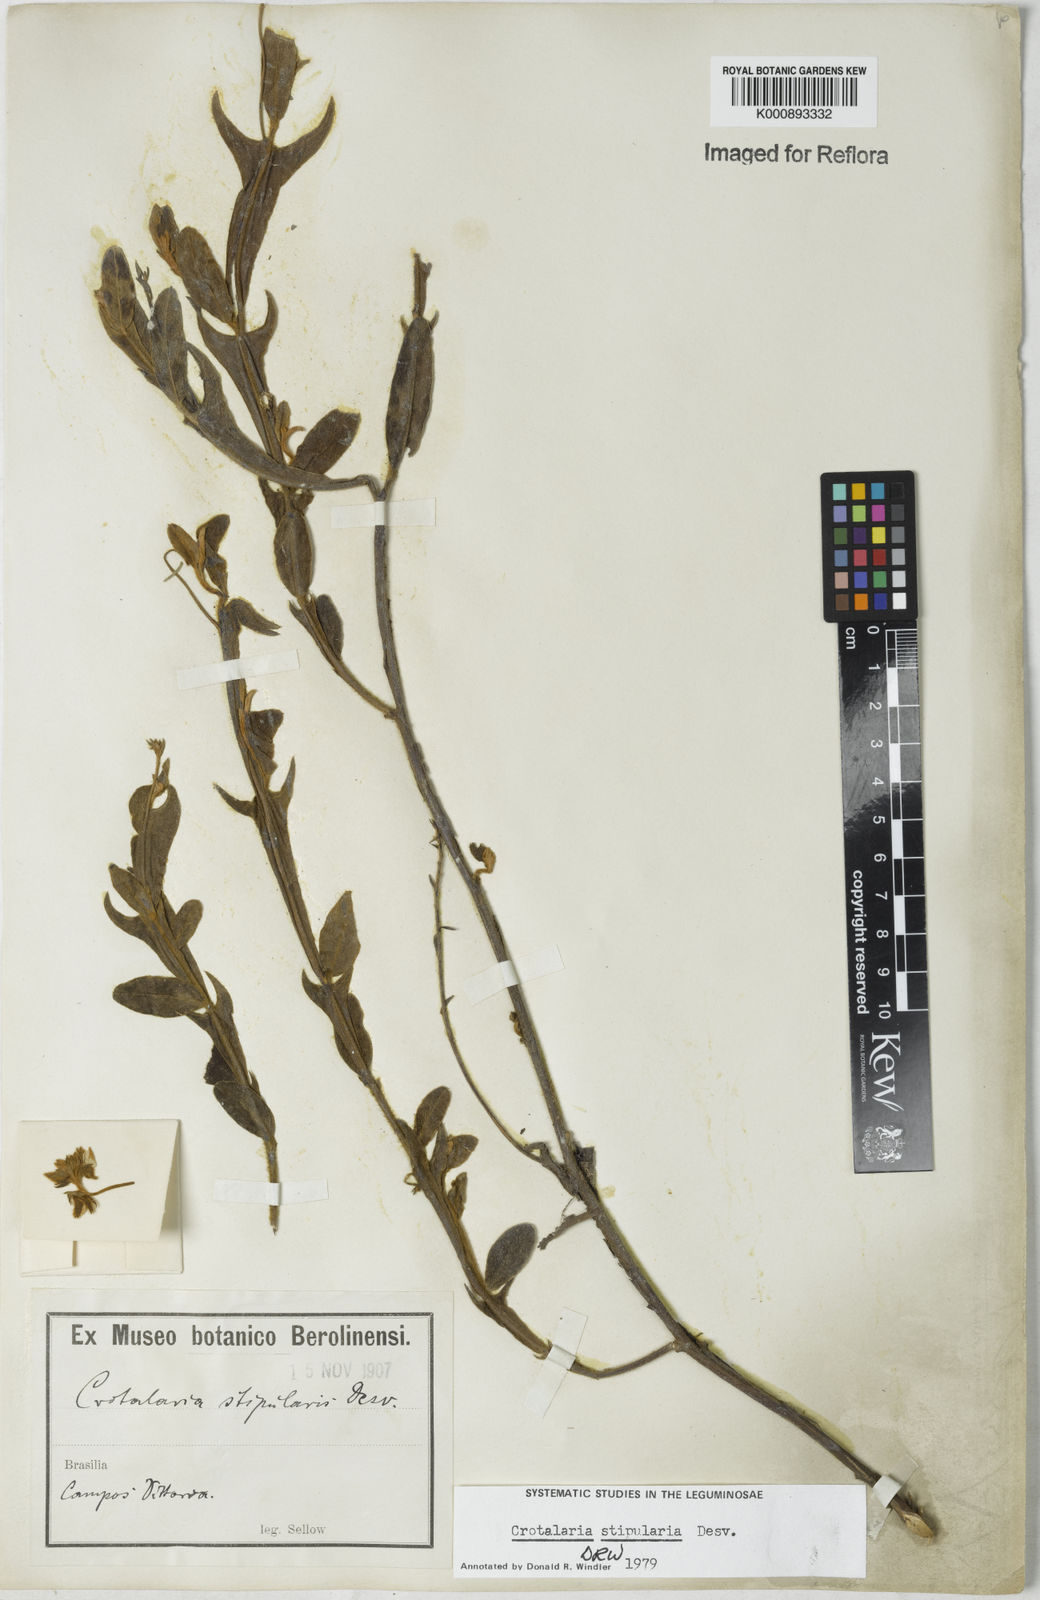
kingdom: Plantae
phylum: Tracheophyta
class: Magnoliopsida
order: Fabales
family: Fabaceae
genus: Crotalaria
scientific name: Crotalaria stipularia
